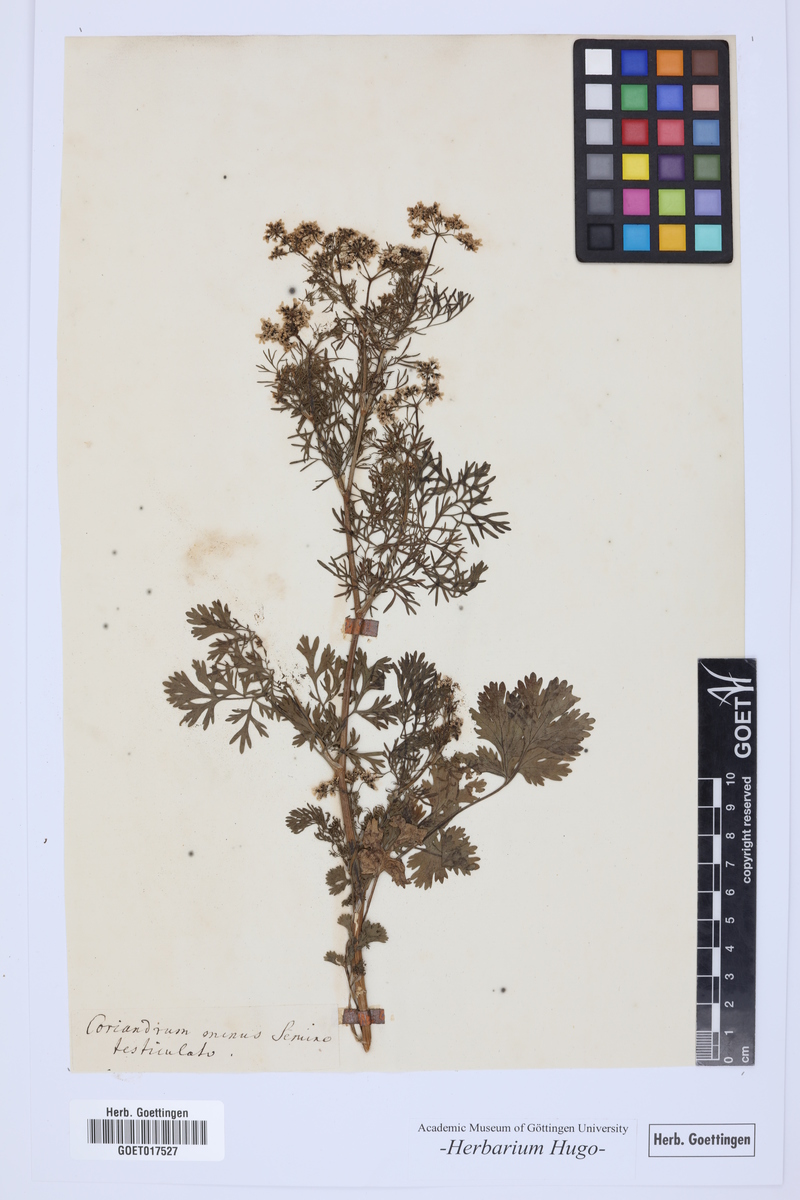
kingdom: Plantae
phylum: Tracheophyta
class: Magnoliopsida
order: Apiales
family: Apiaceae
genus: Coriandrum
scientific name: Coriandrum
